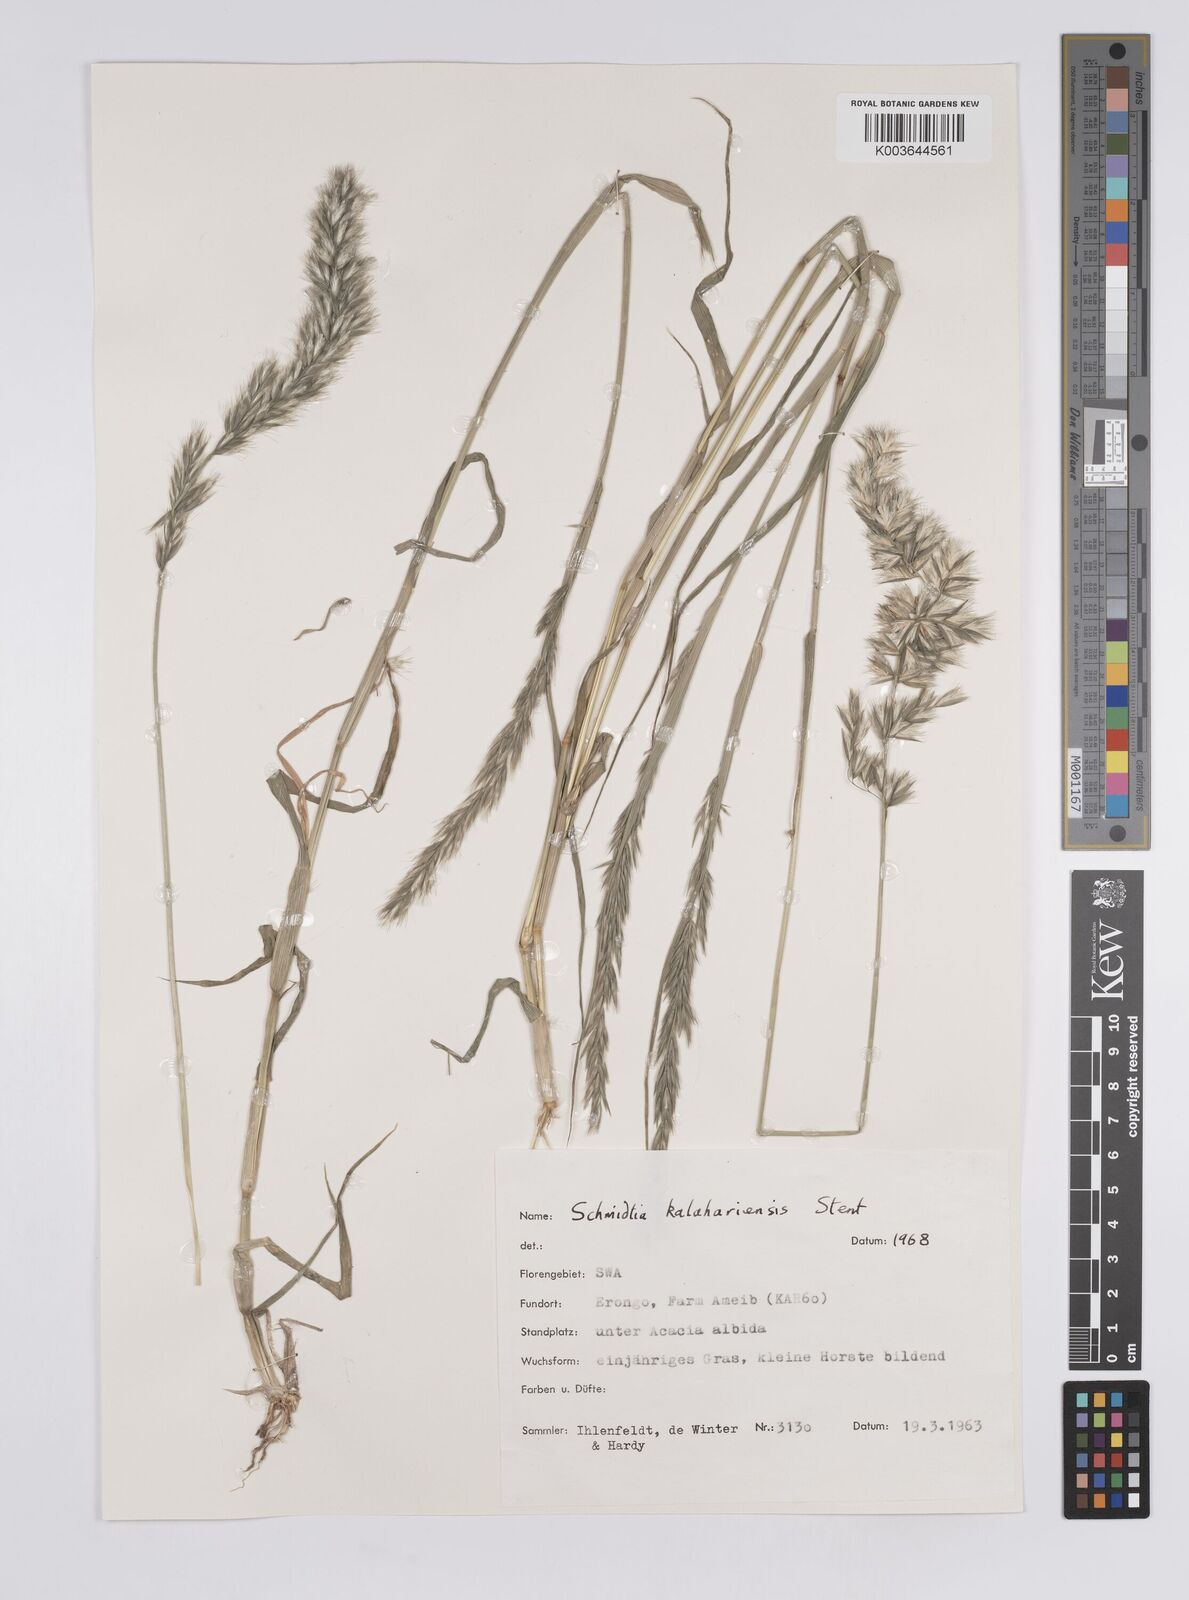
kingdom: Plantae
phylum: Tracheophyta
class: Liliopsida
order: Poales
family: Poaceae
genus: Schmidtia
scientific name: Schmidtia kalahariensis
